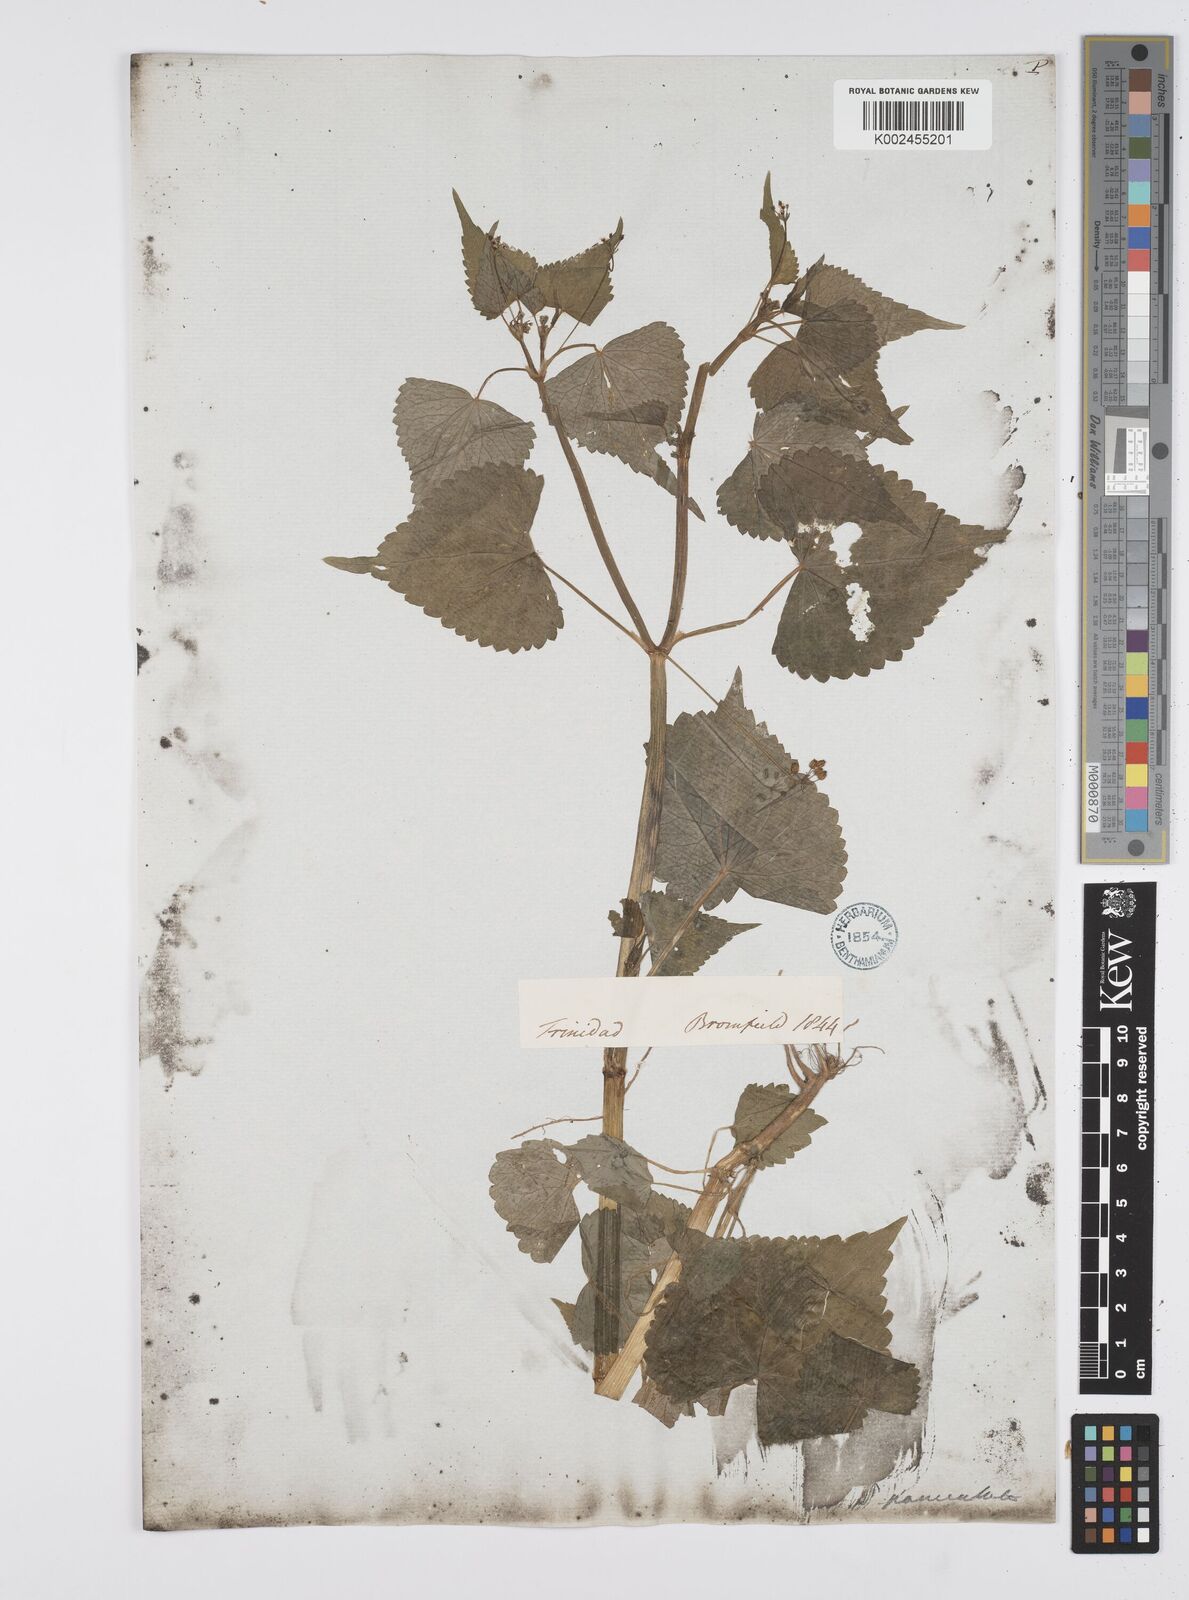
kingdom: Plantae
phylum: Tracheophyta
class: Magnoliopsida
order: Apiales
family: Apiaceae
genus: Azorella
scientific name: Azorella
